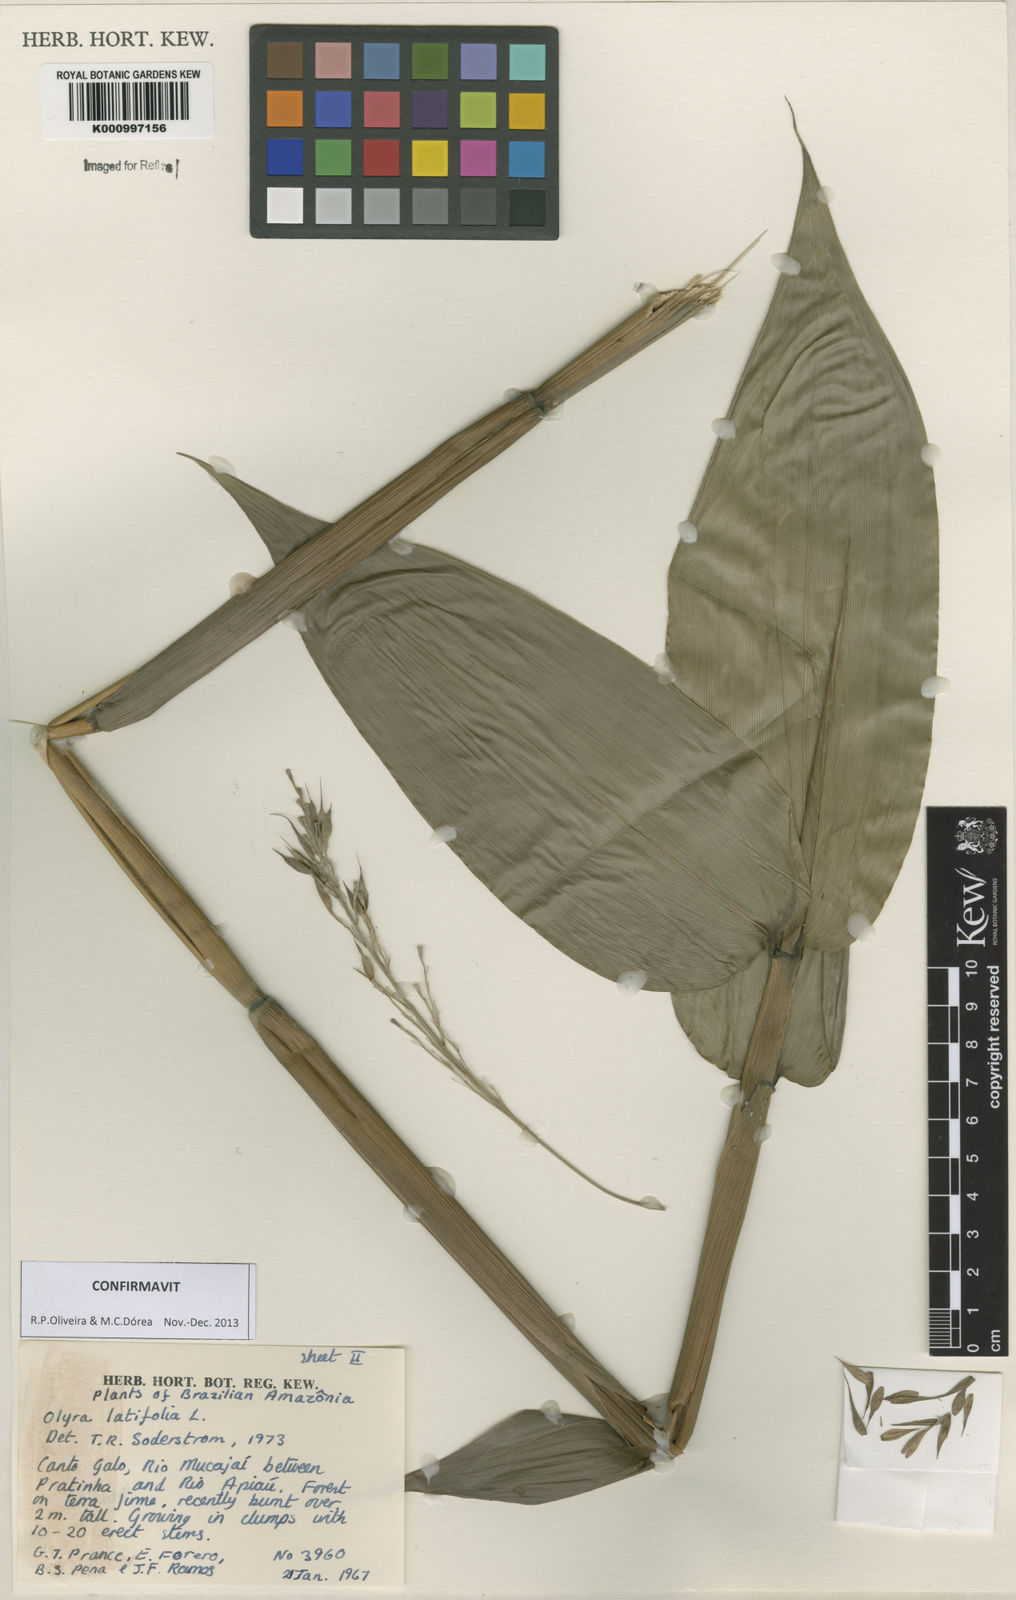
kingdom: Plantae
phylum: Tracheophyta
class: Liliopsida
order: Poales
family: Poaceae
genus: Olyra
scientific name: Olyra latifolia
